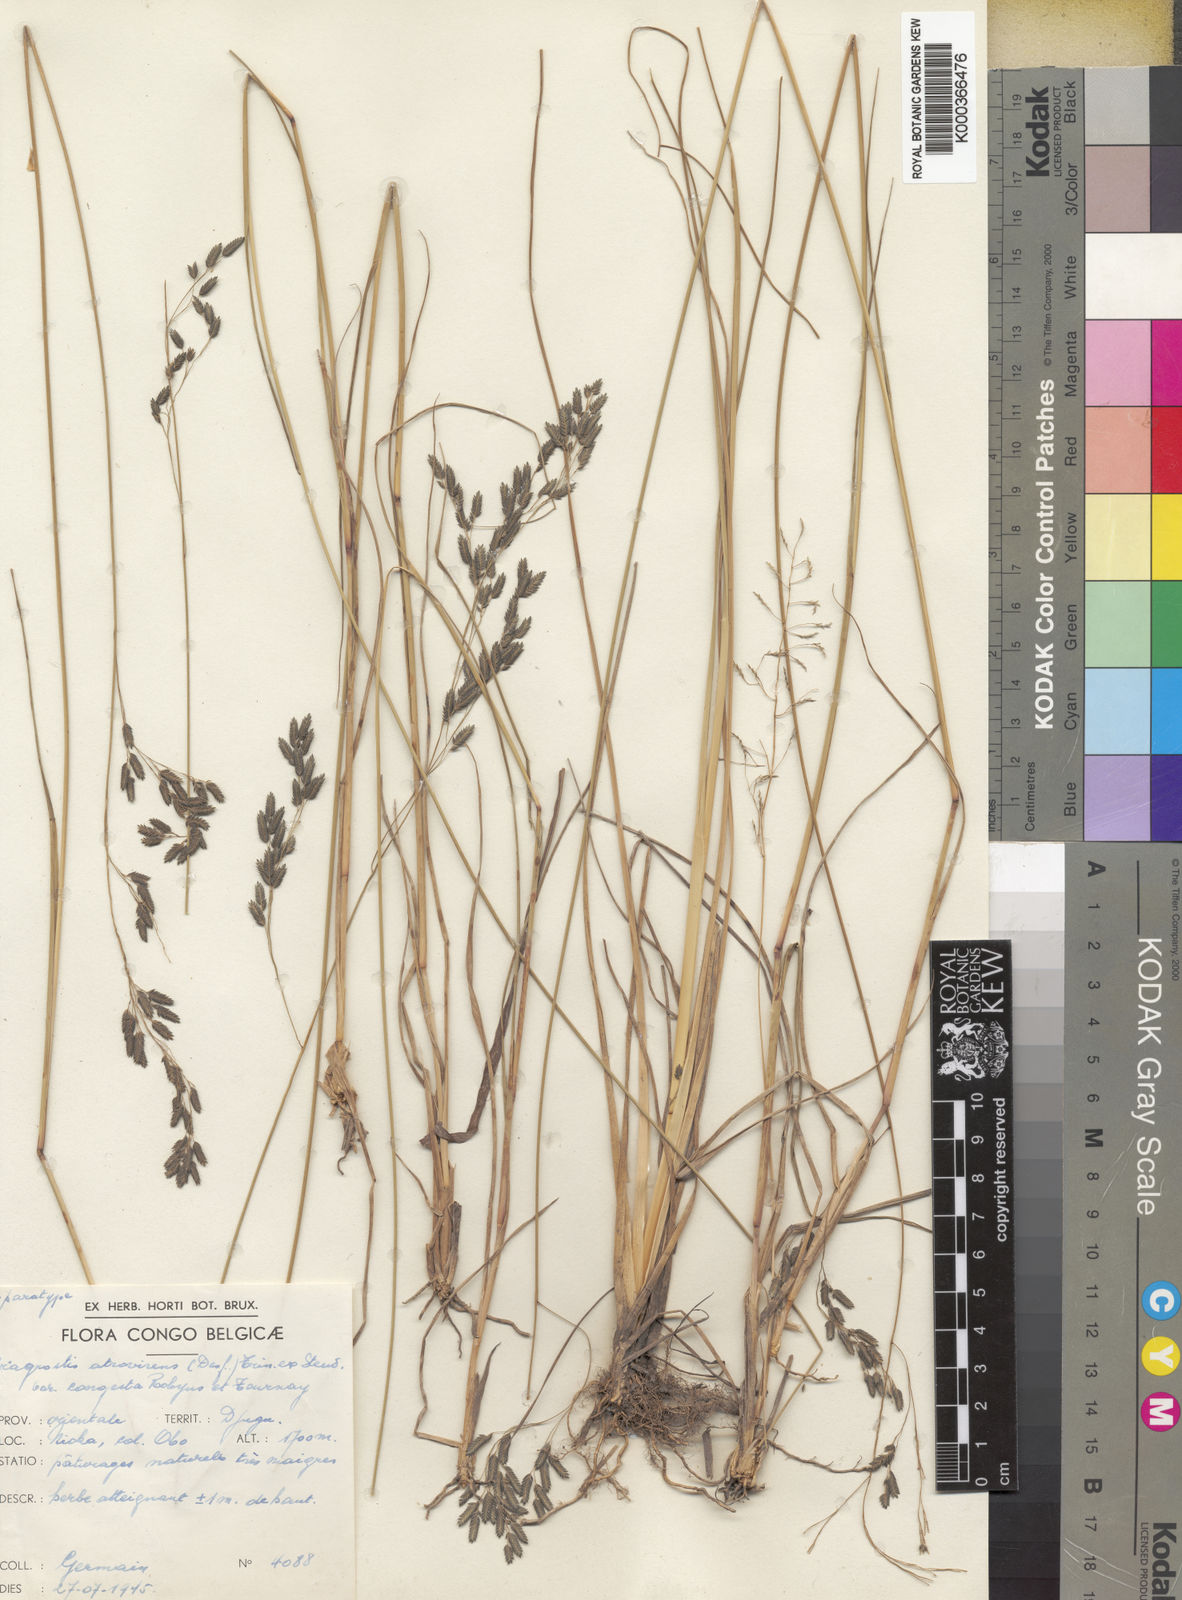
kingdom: Plantae
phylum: Tracheophyta
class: Liliopsida
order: Poales
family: Poaceae
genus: Eragrostis
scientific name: Eragrostis botryodes
